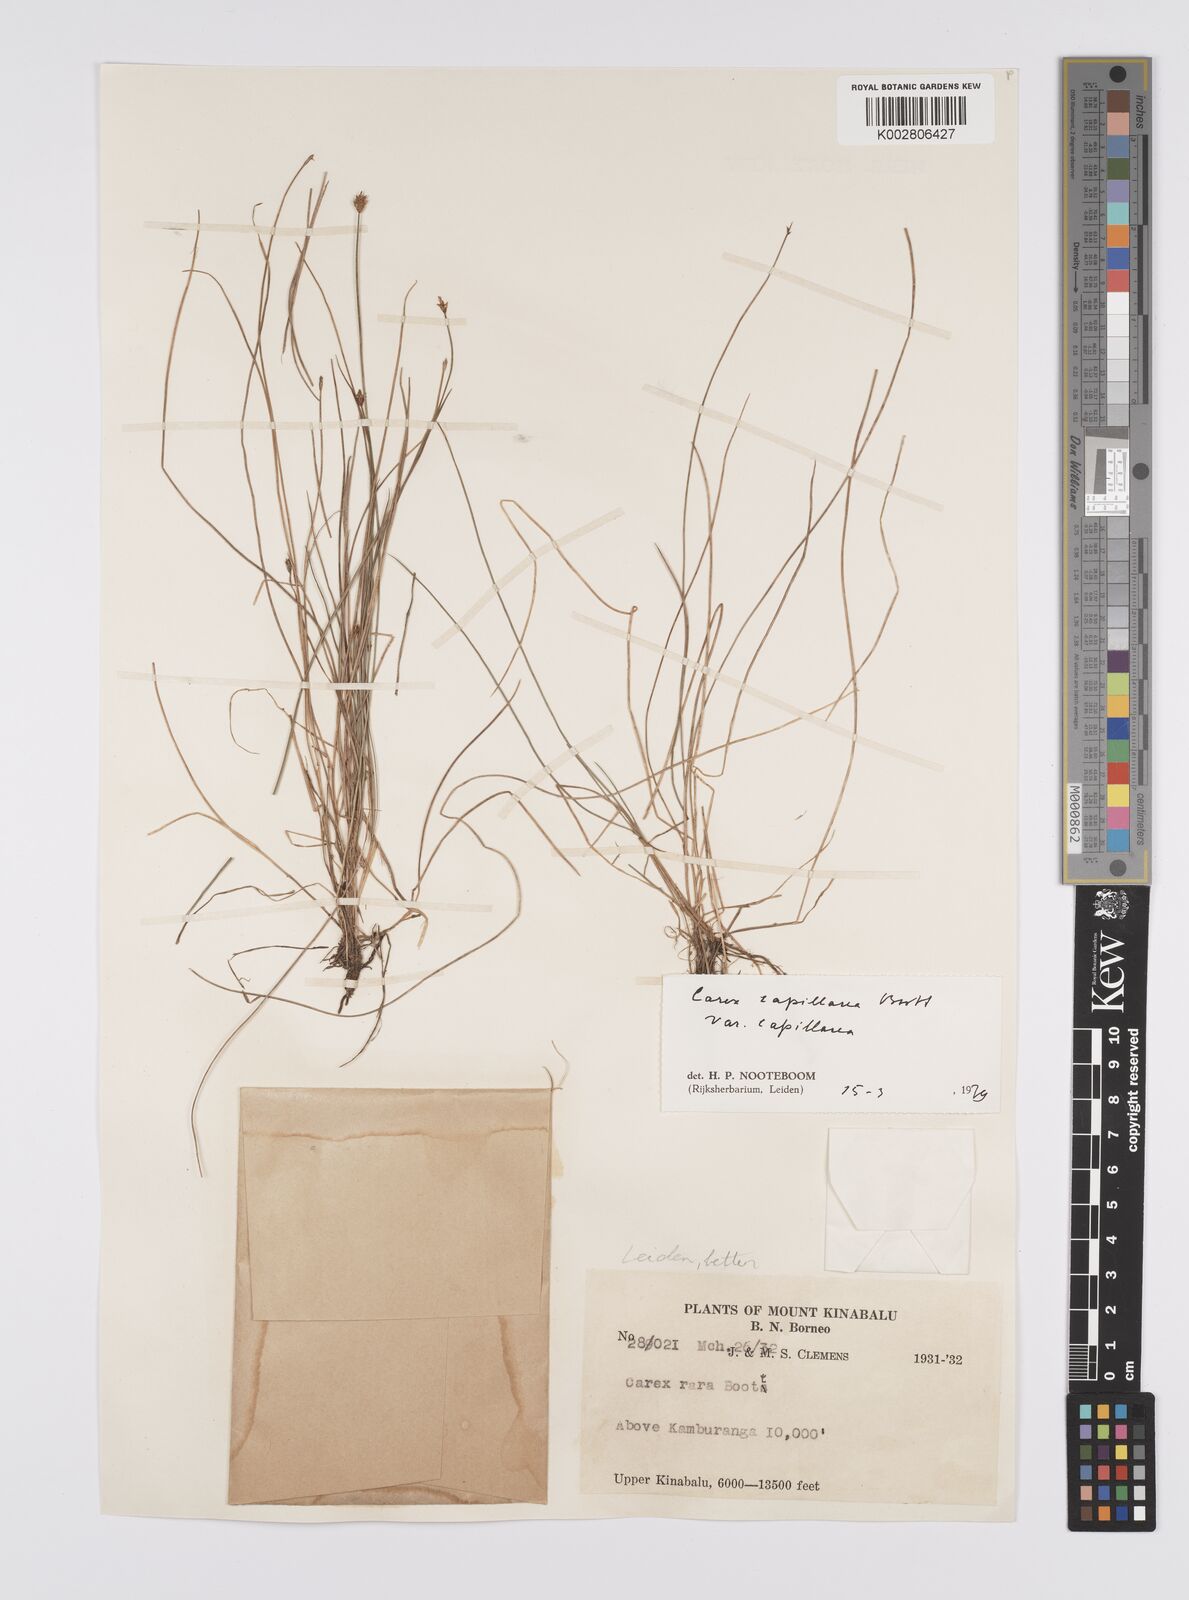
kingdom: Plantae
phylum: Tracheophyta
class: Liliopsida
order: Poales
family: Cyperaceae
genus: Carex
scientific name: Carex capillacea
